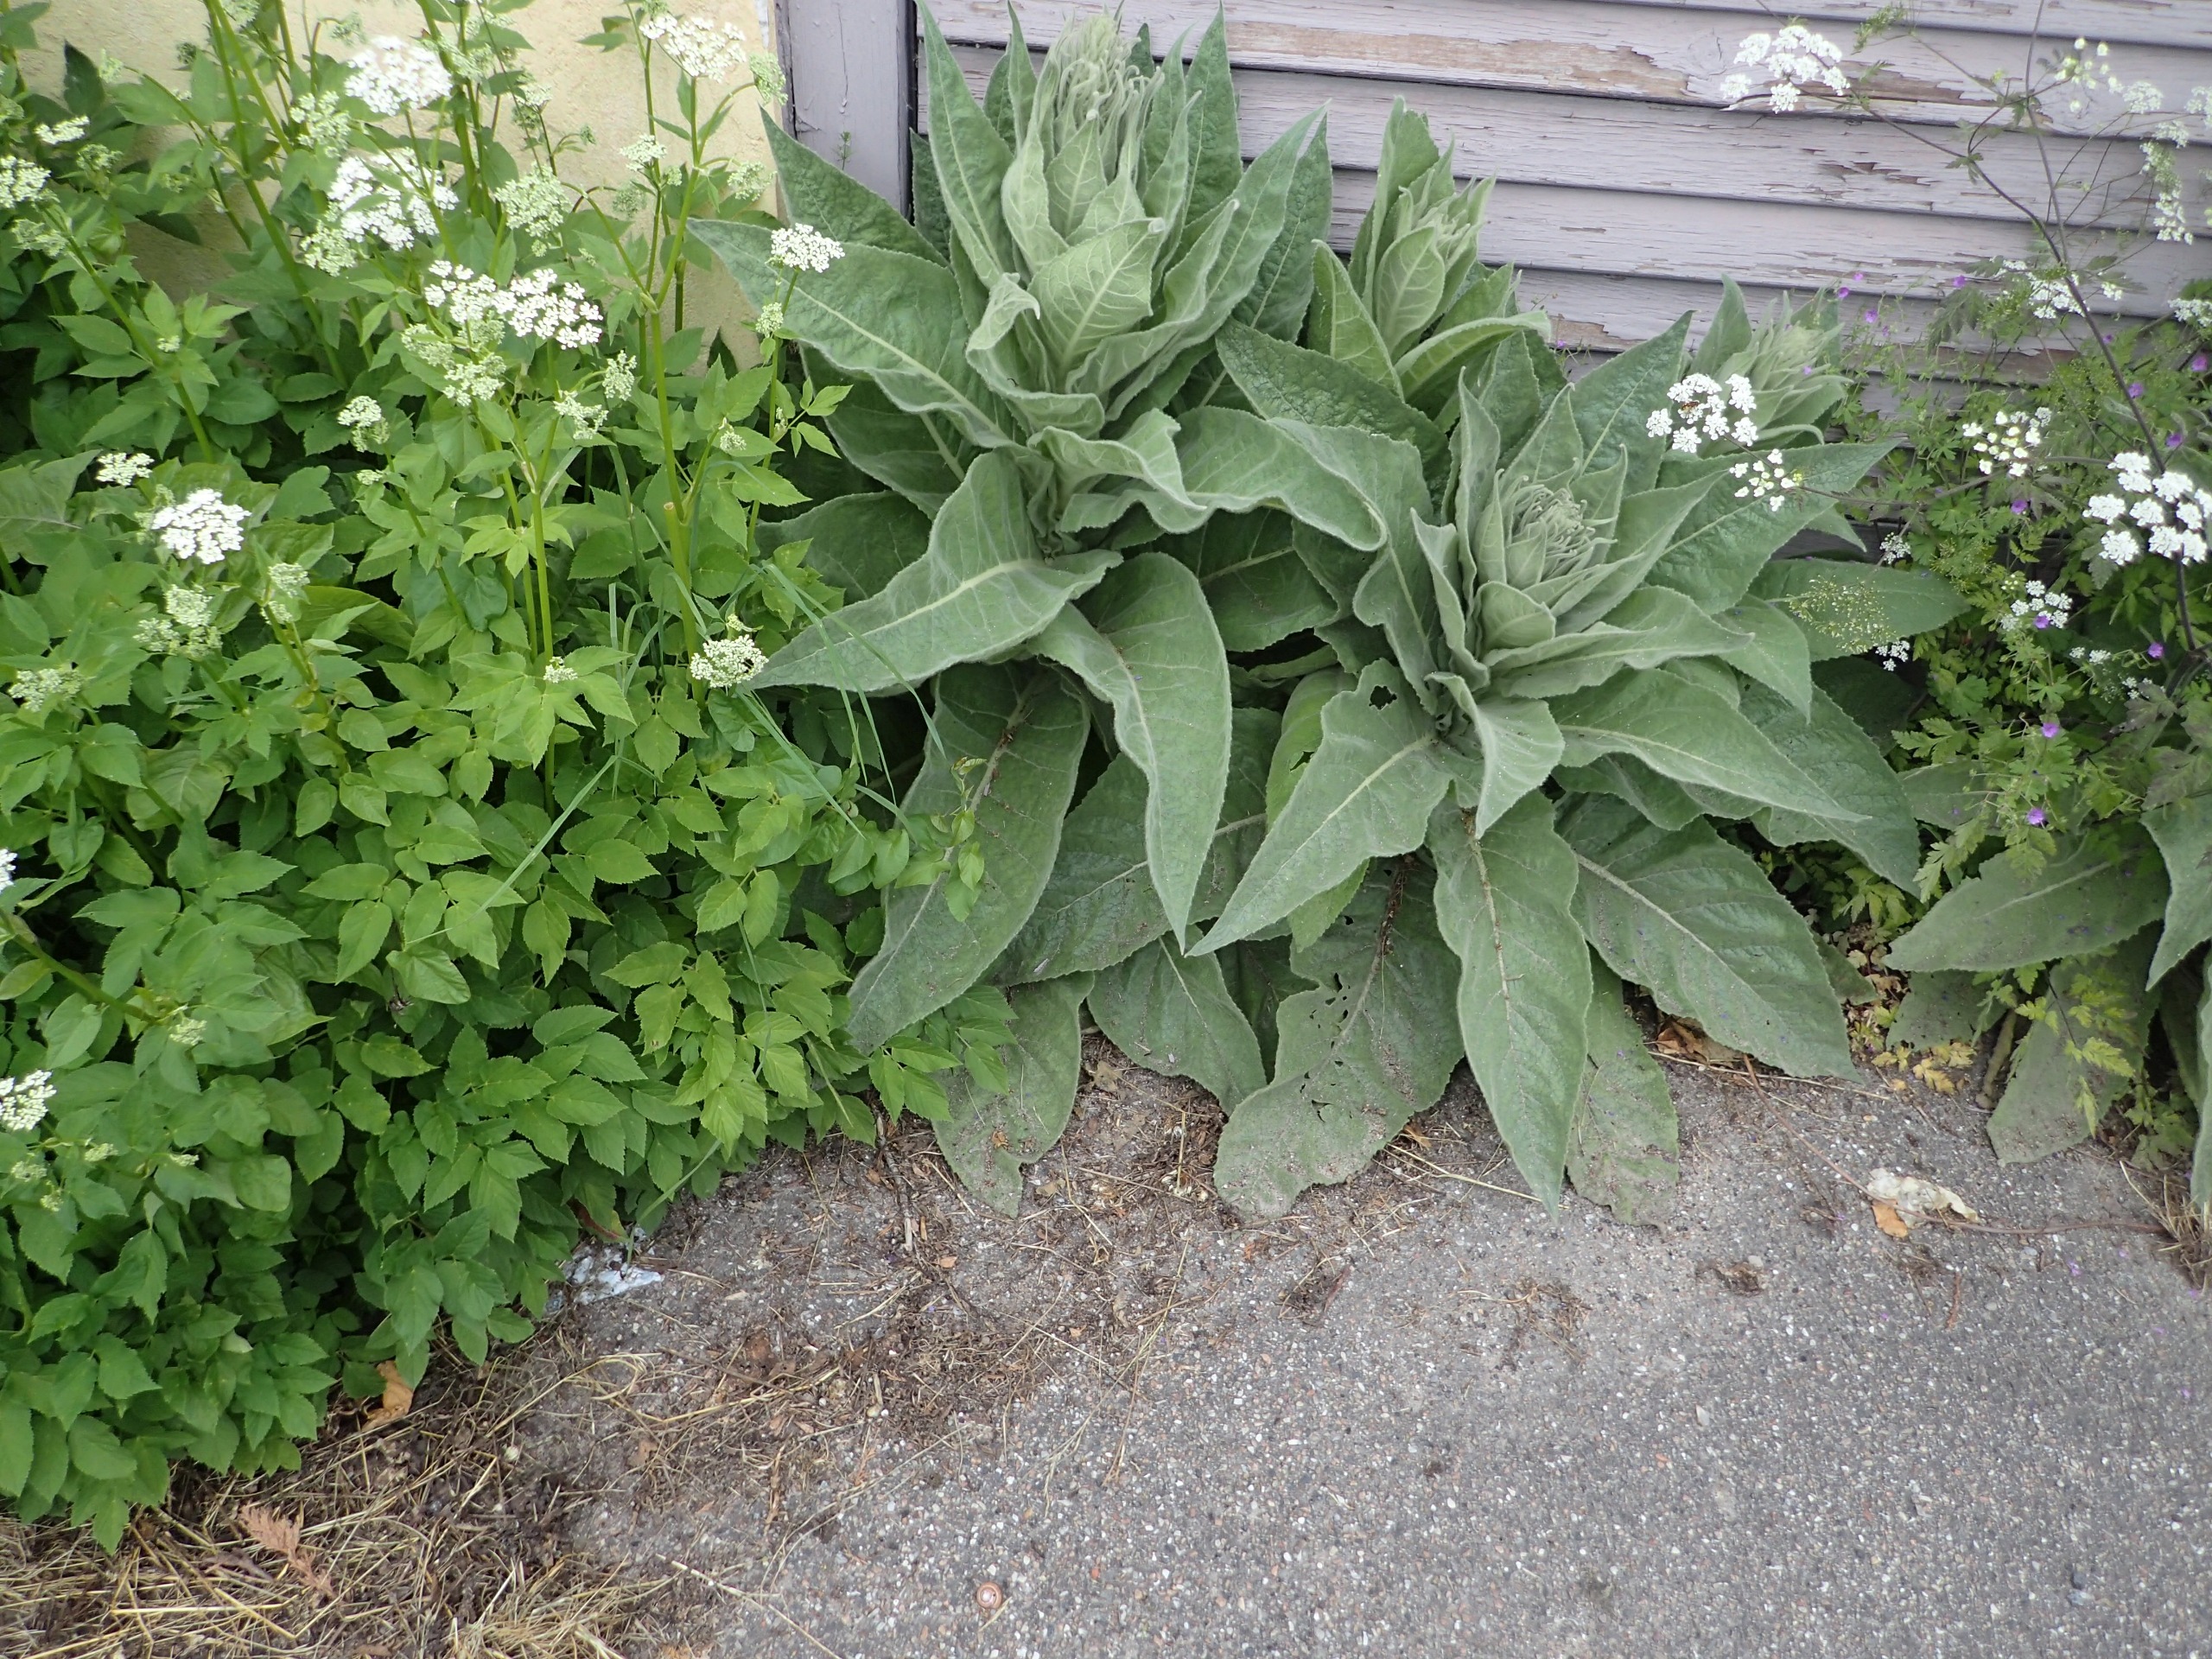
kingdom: Plantae
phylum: Tracheophyta
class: Magnoliopsida
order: Lamiales
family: Scrophulariaceae
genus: Verbascum
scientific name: Verbascum densiflorum
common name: Uldbladet kongelys
